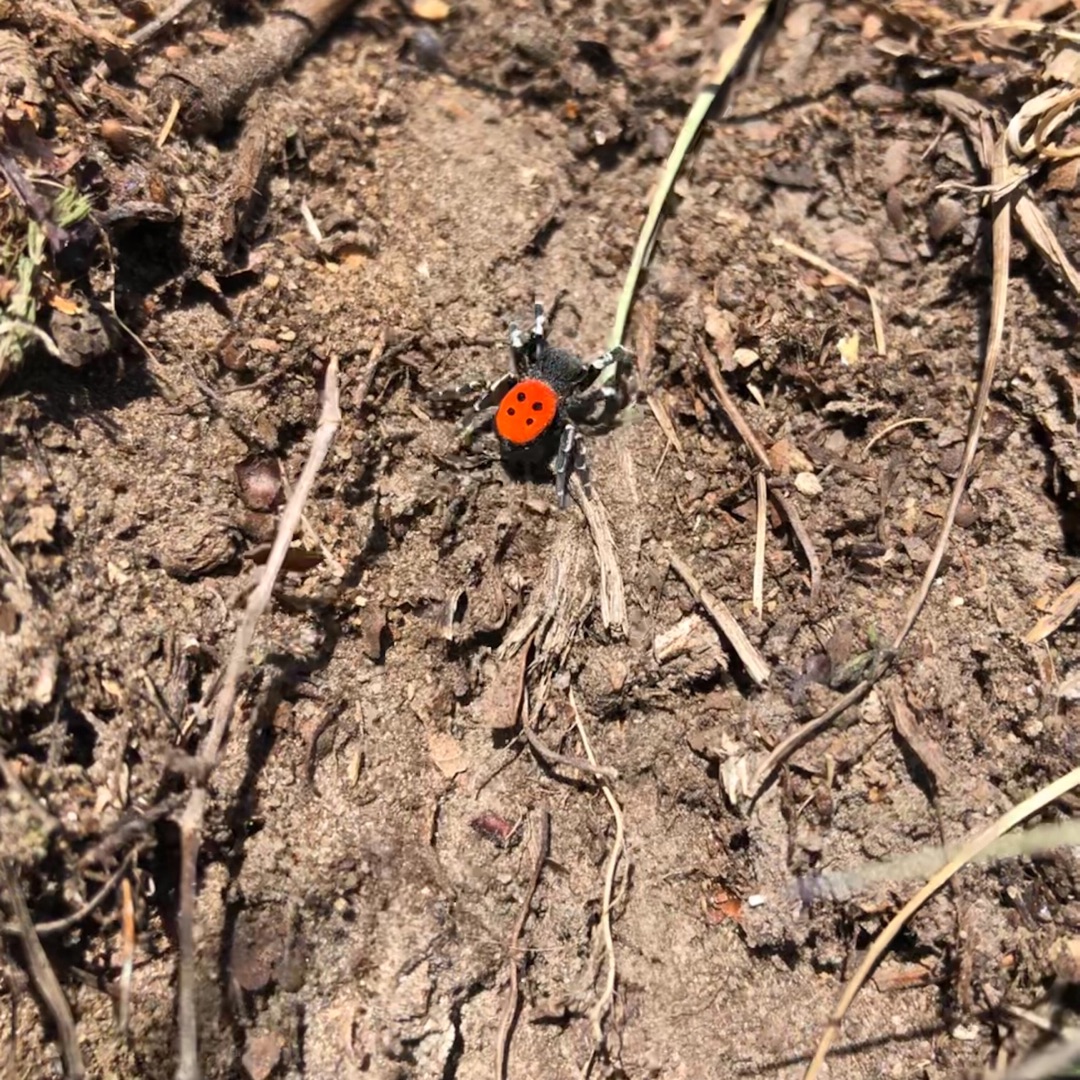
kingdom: Animalia
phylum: Arthropoda
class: Arachnida
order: Araneae
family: Eresidae
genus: Eresus
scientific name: Eresus sandaliatus
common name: Mariehøneedderkop
